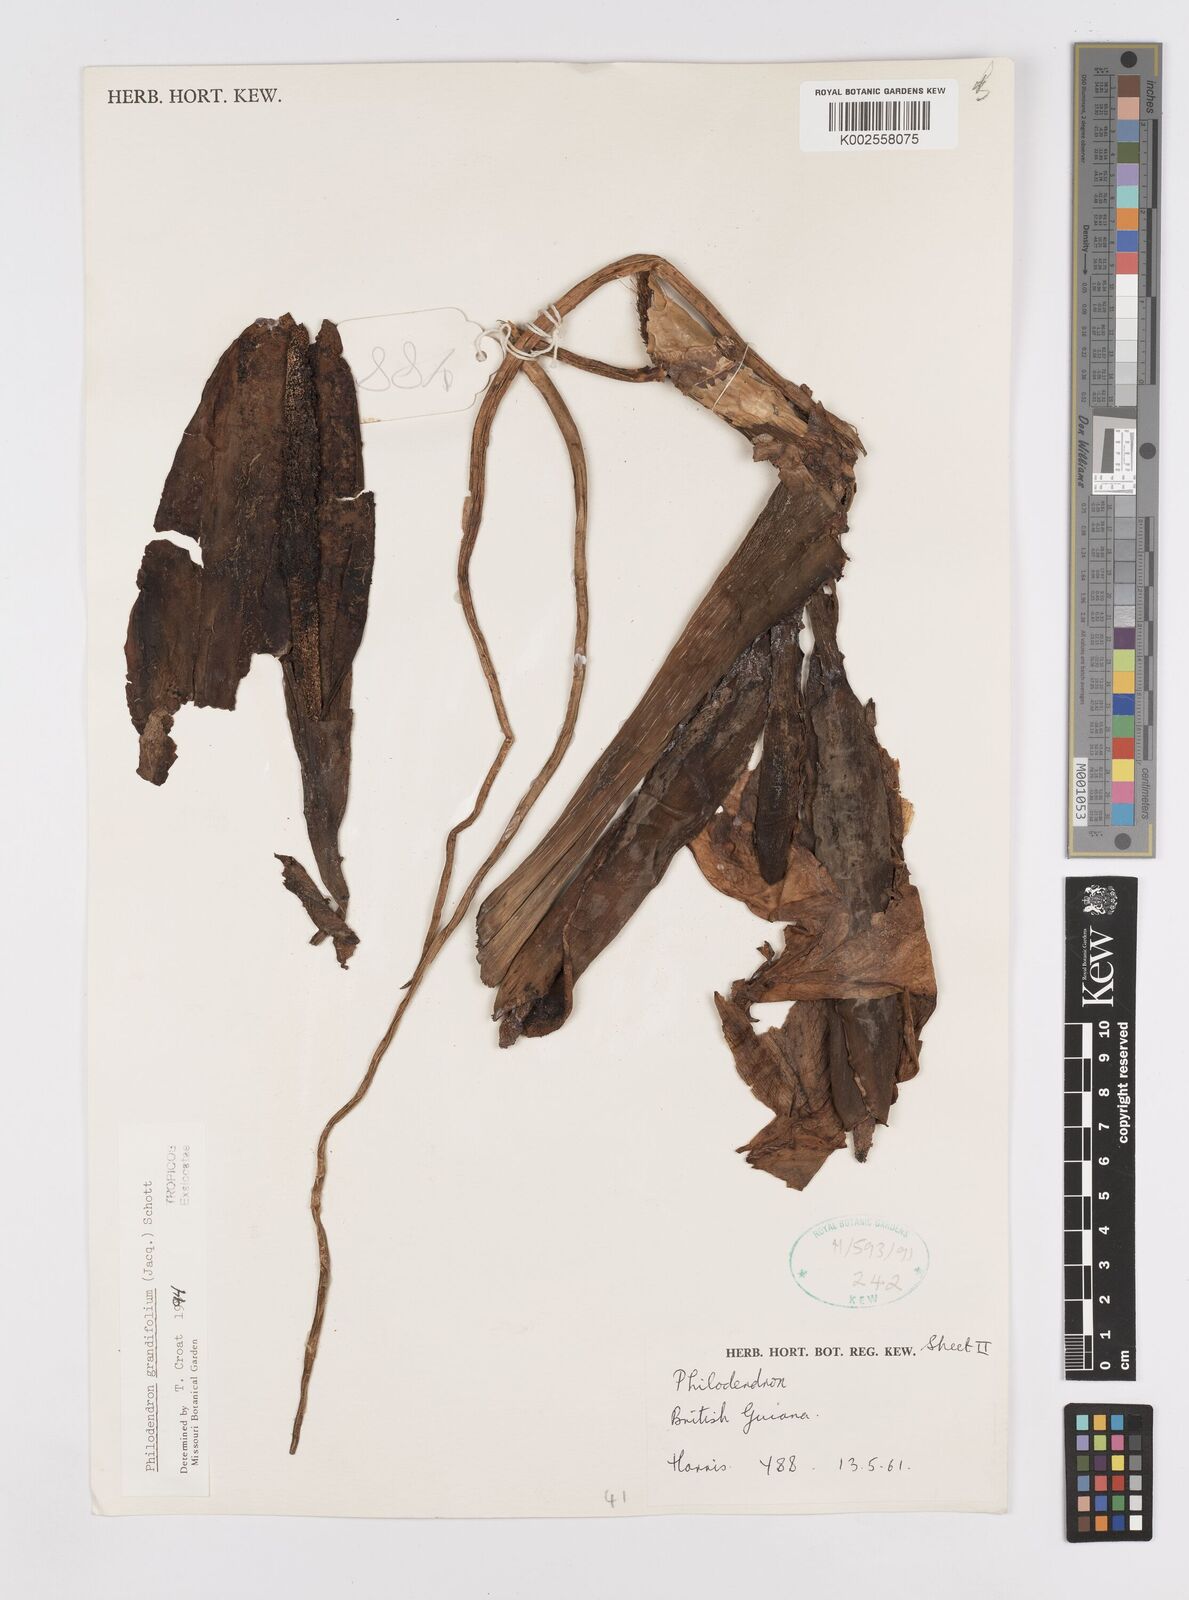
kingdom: Plantae
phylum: Tracheophyta
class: Liliopsida
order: Alismatales
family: Araceae
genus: Philodendron
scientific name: Philodendron grandifolium
